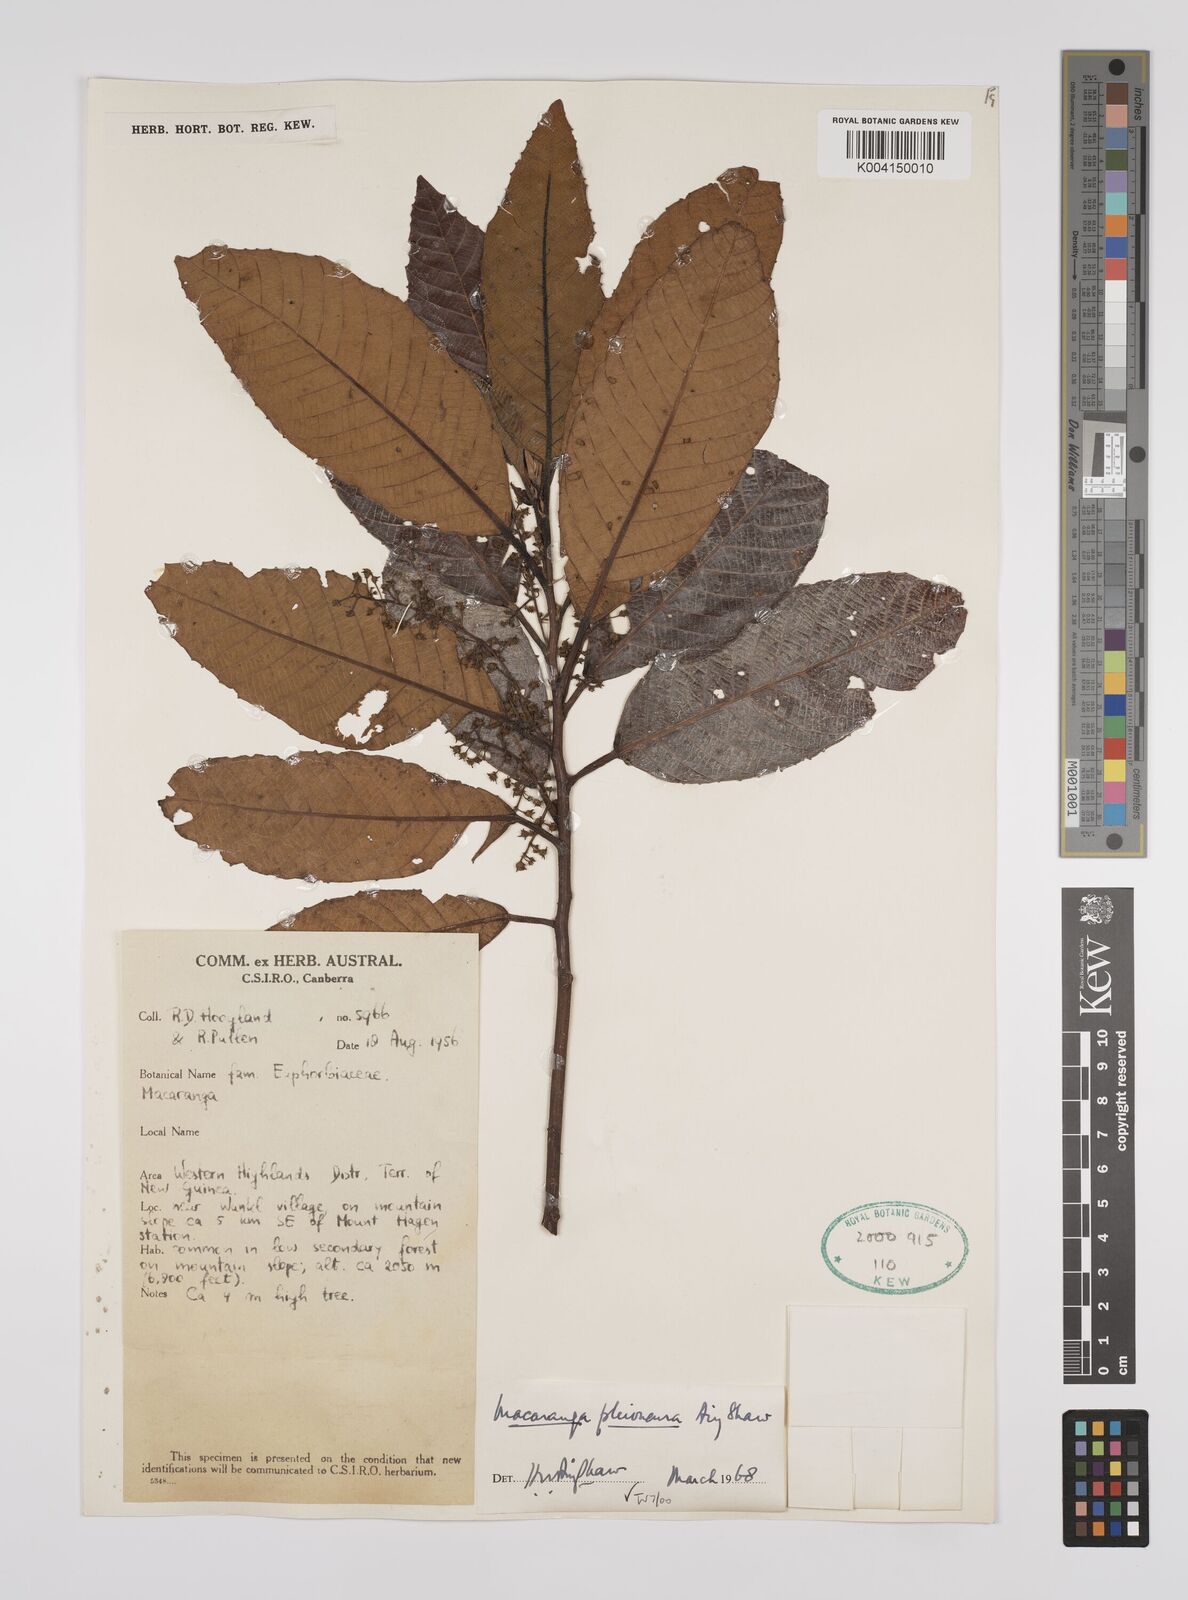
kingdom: Plantae
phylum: Tracheophyta
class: Magnoliopsida
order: Malpighiales
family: Euphorbiaceae
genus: Macaranga
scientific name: Macaranga pleioneura
